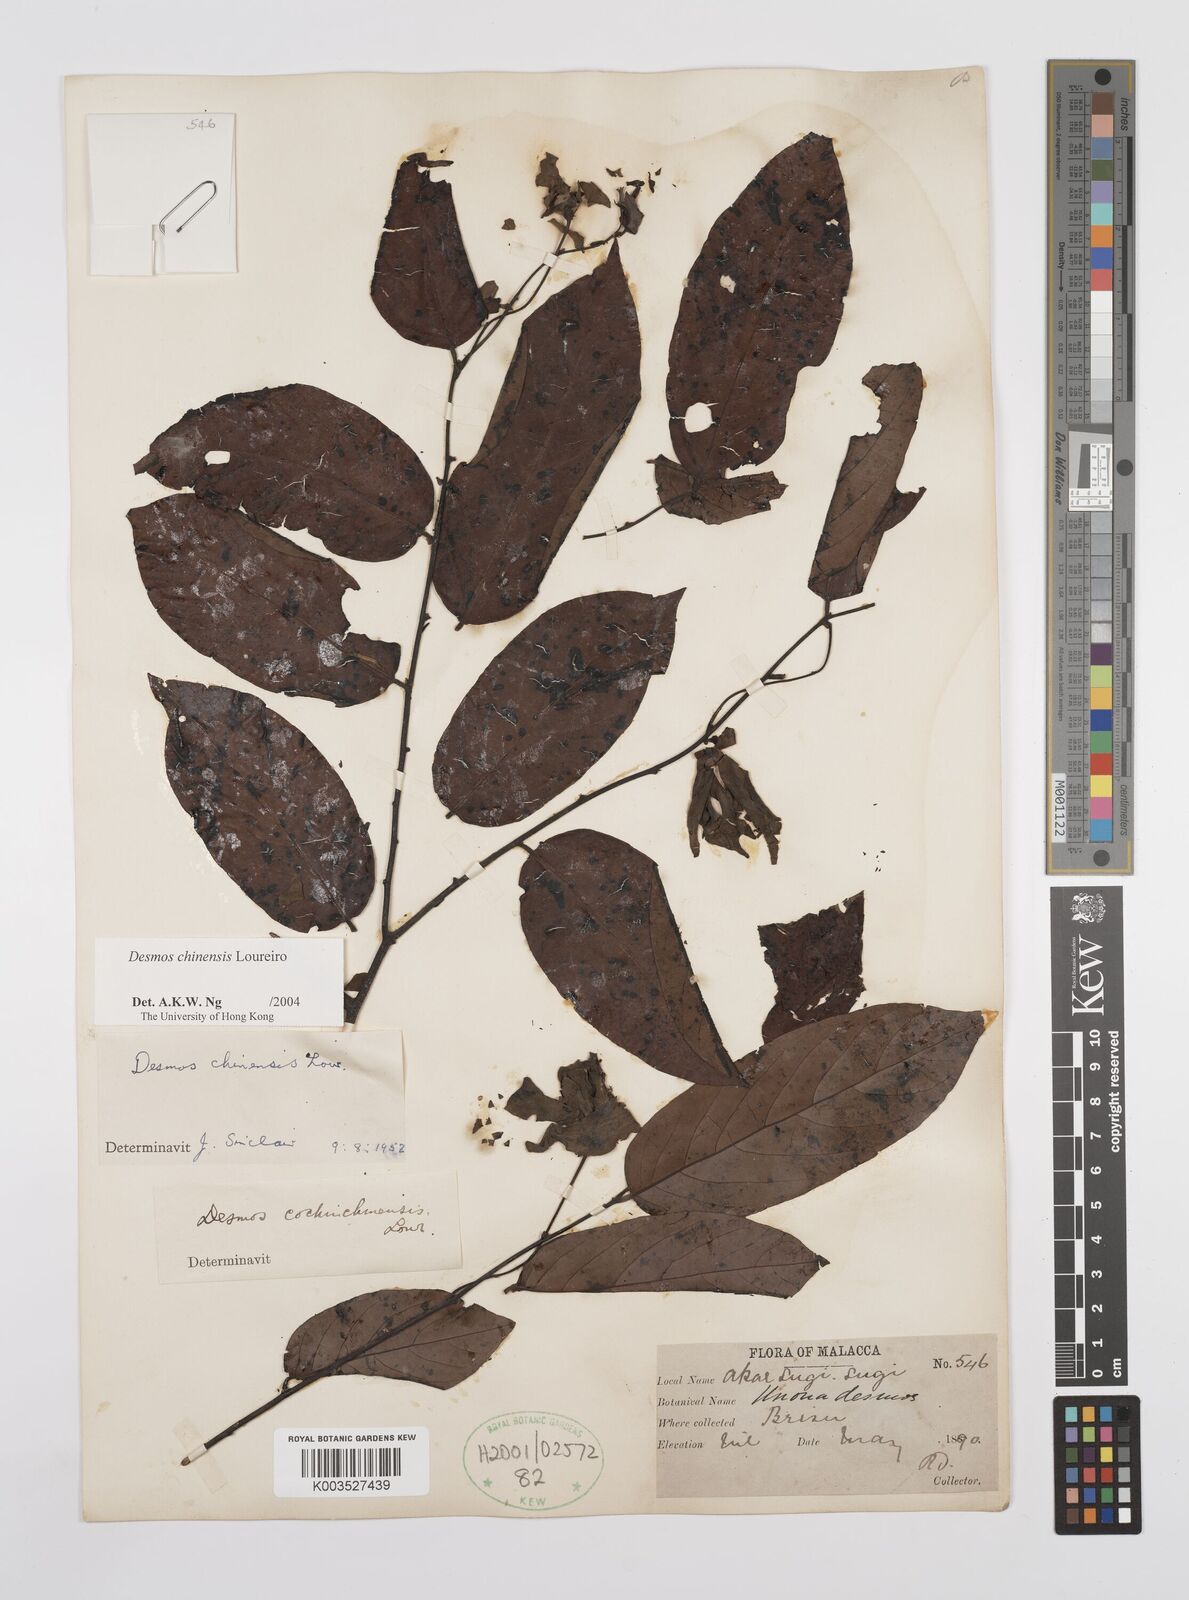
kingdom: Plantae
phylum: Tracheophyta
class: Magnoliopsida
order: Magnoliales
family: Annonaceae
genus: Desmos
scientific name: Desmos chinensis
